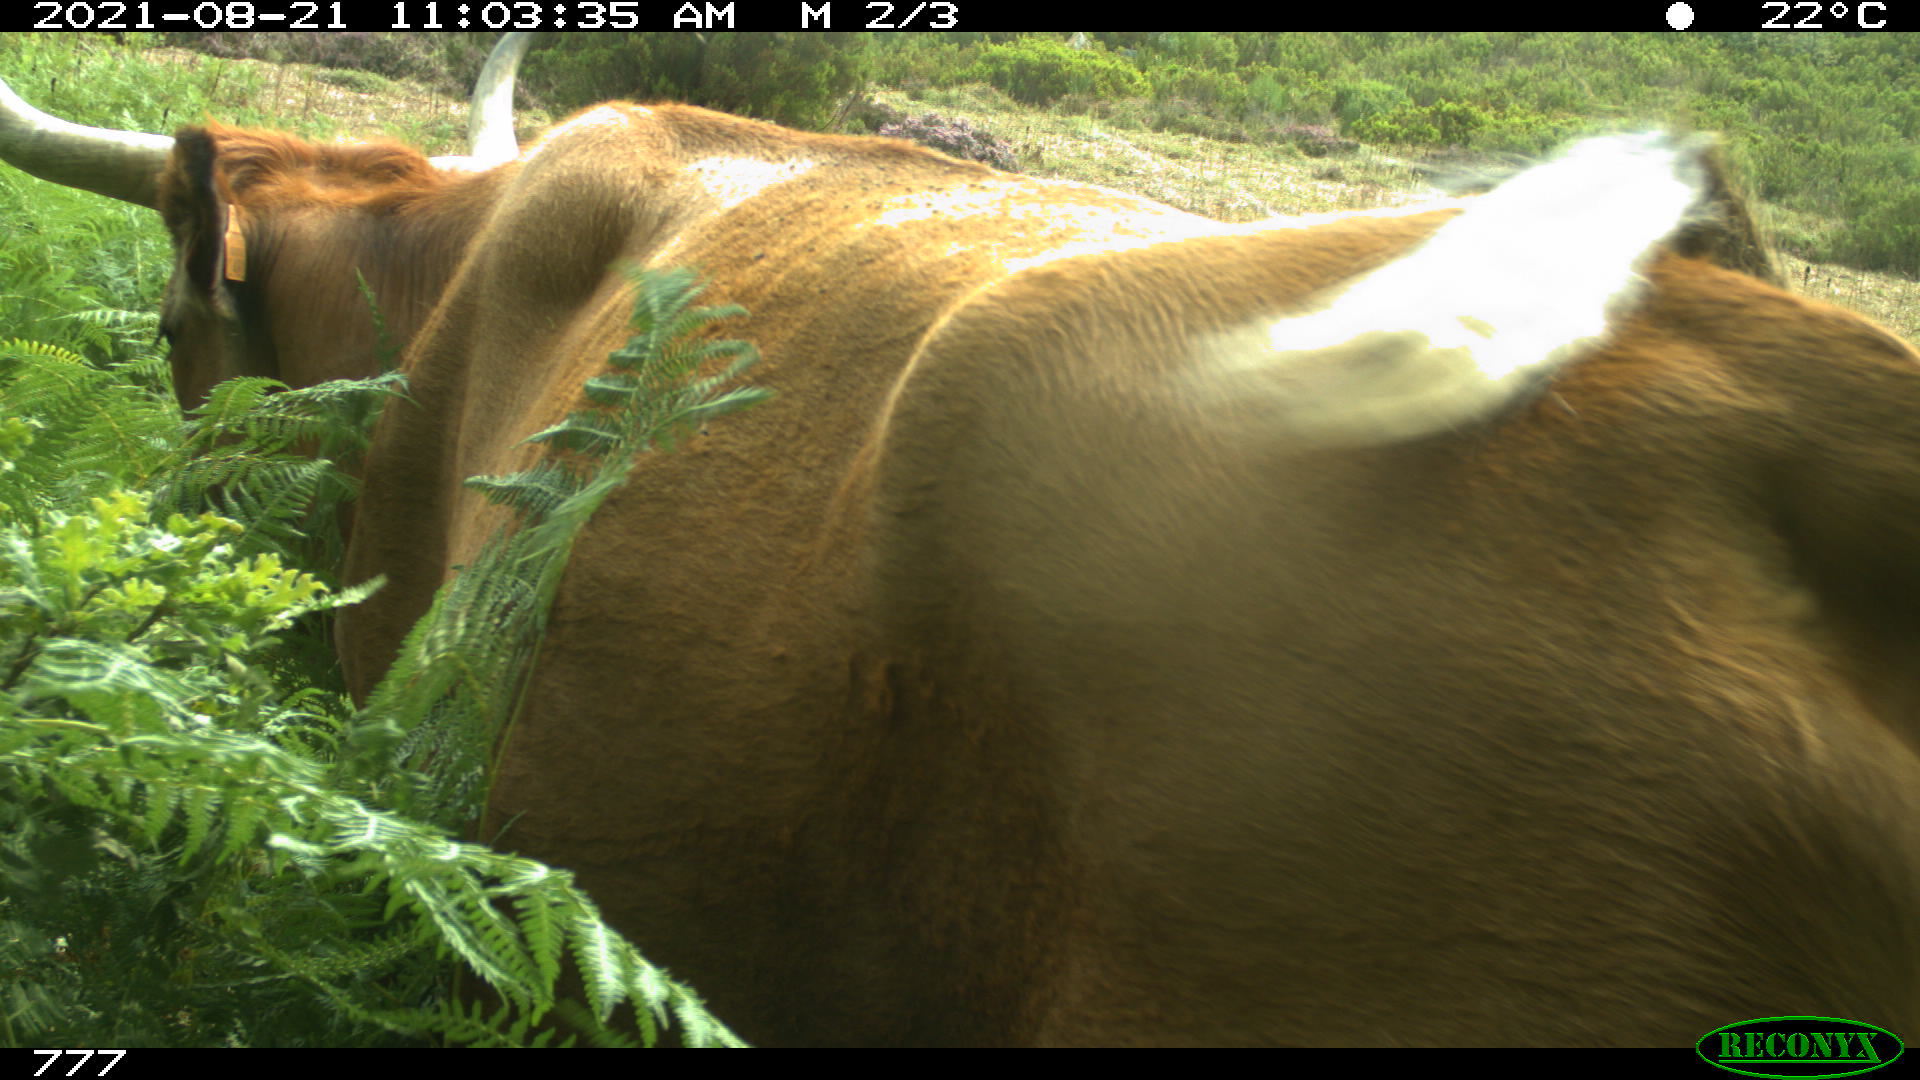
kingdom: Animalia
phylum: Chordata
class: Mammalia
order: Artiodactyla
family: Bovidae
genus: Bos
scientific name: Bos taurus
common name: Domesticated cattle
